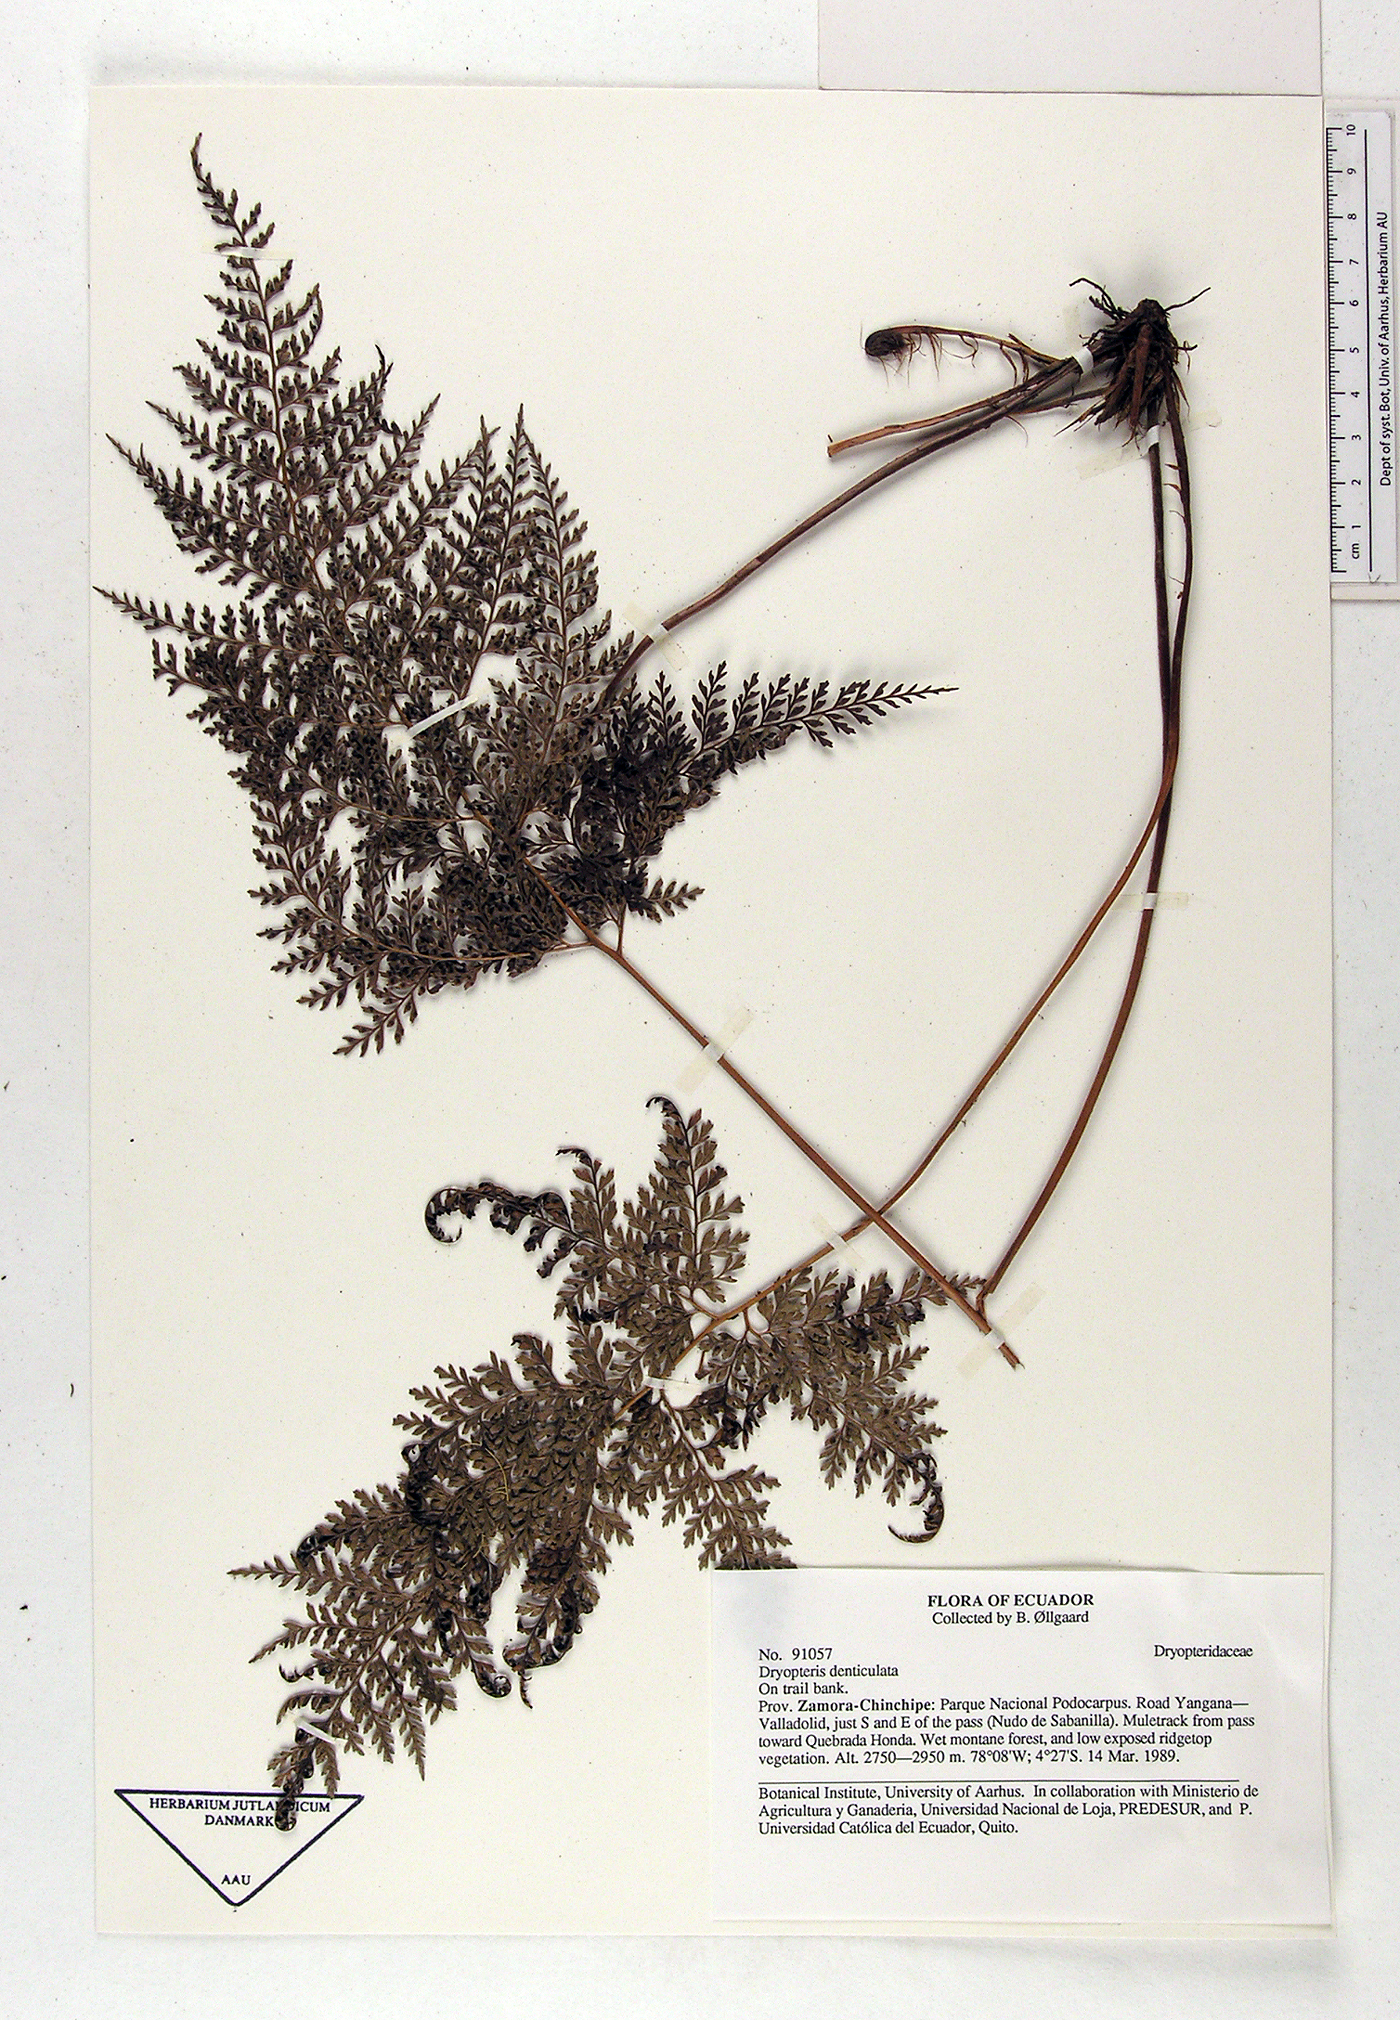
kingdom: Plantae
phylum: Tracheophyta
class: Polypodiopsida
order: Polypodiales
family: Dryopteridaceae
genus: Arachniodes
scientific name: Arachniodes denticulata
